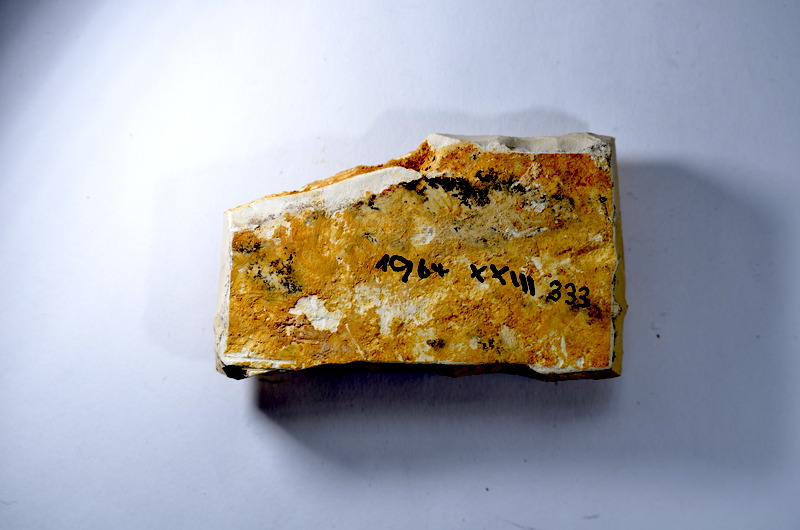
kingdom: Animalia
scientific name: Animalia
